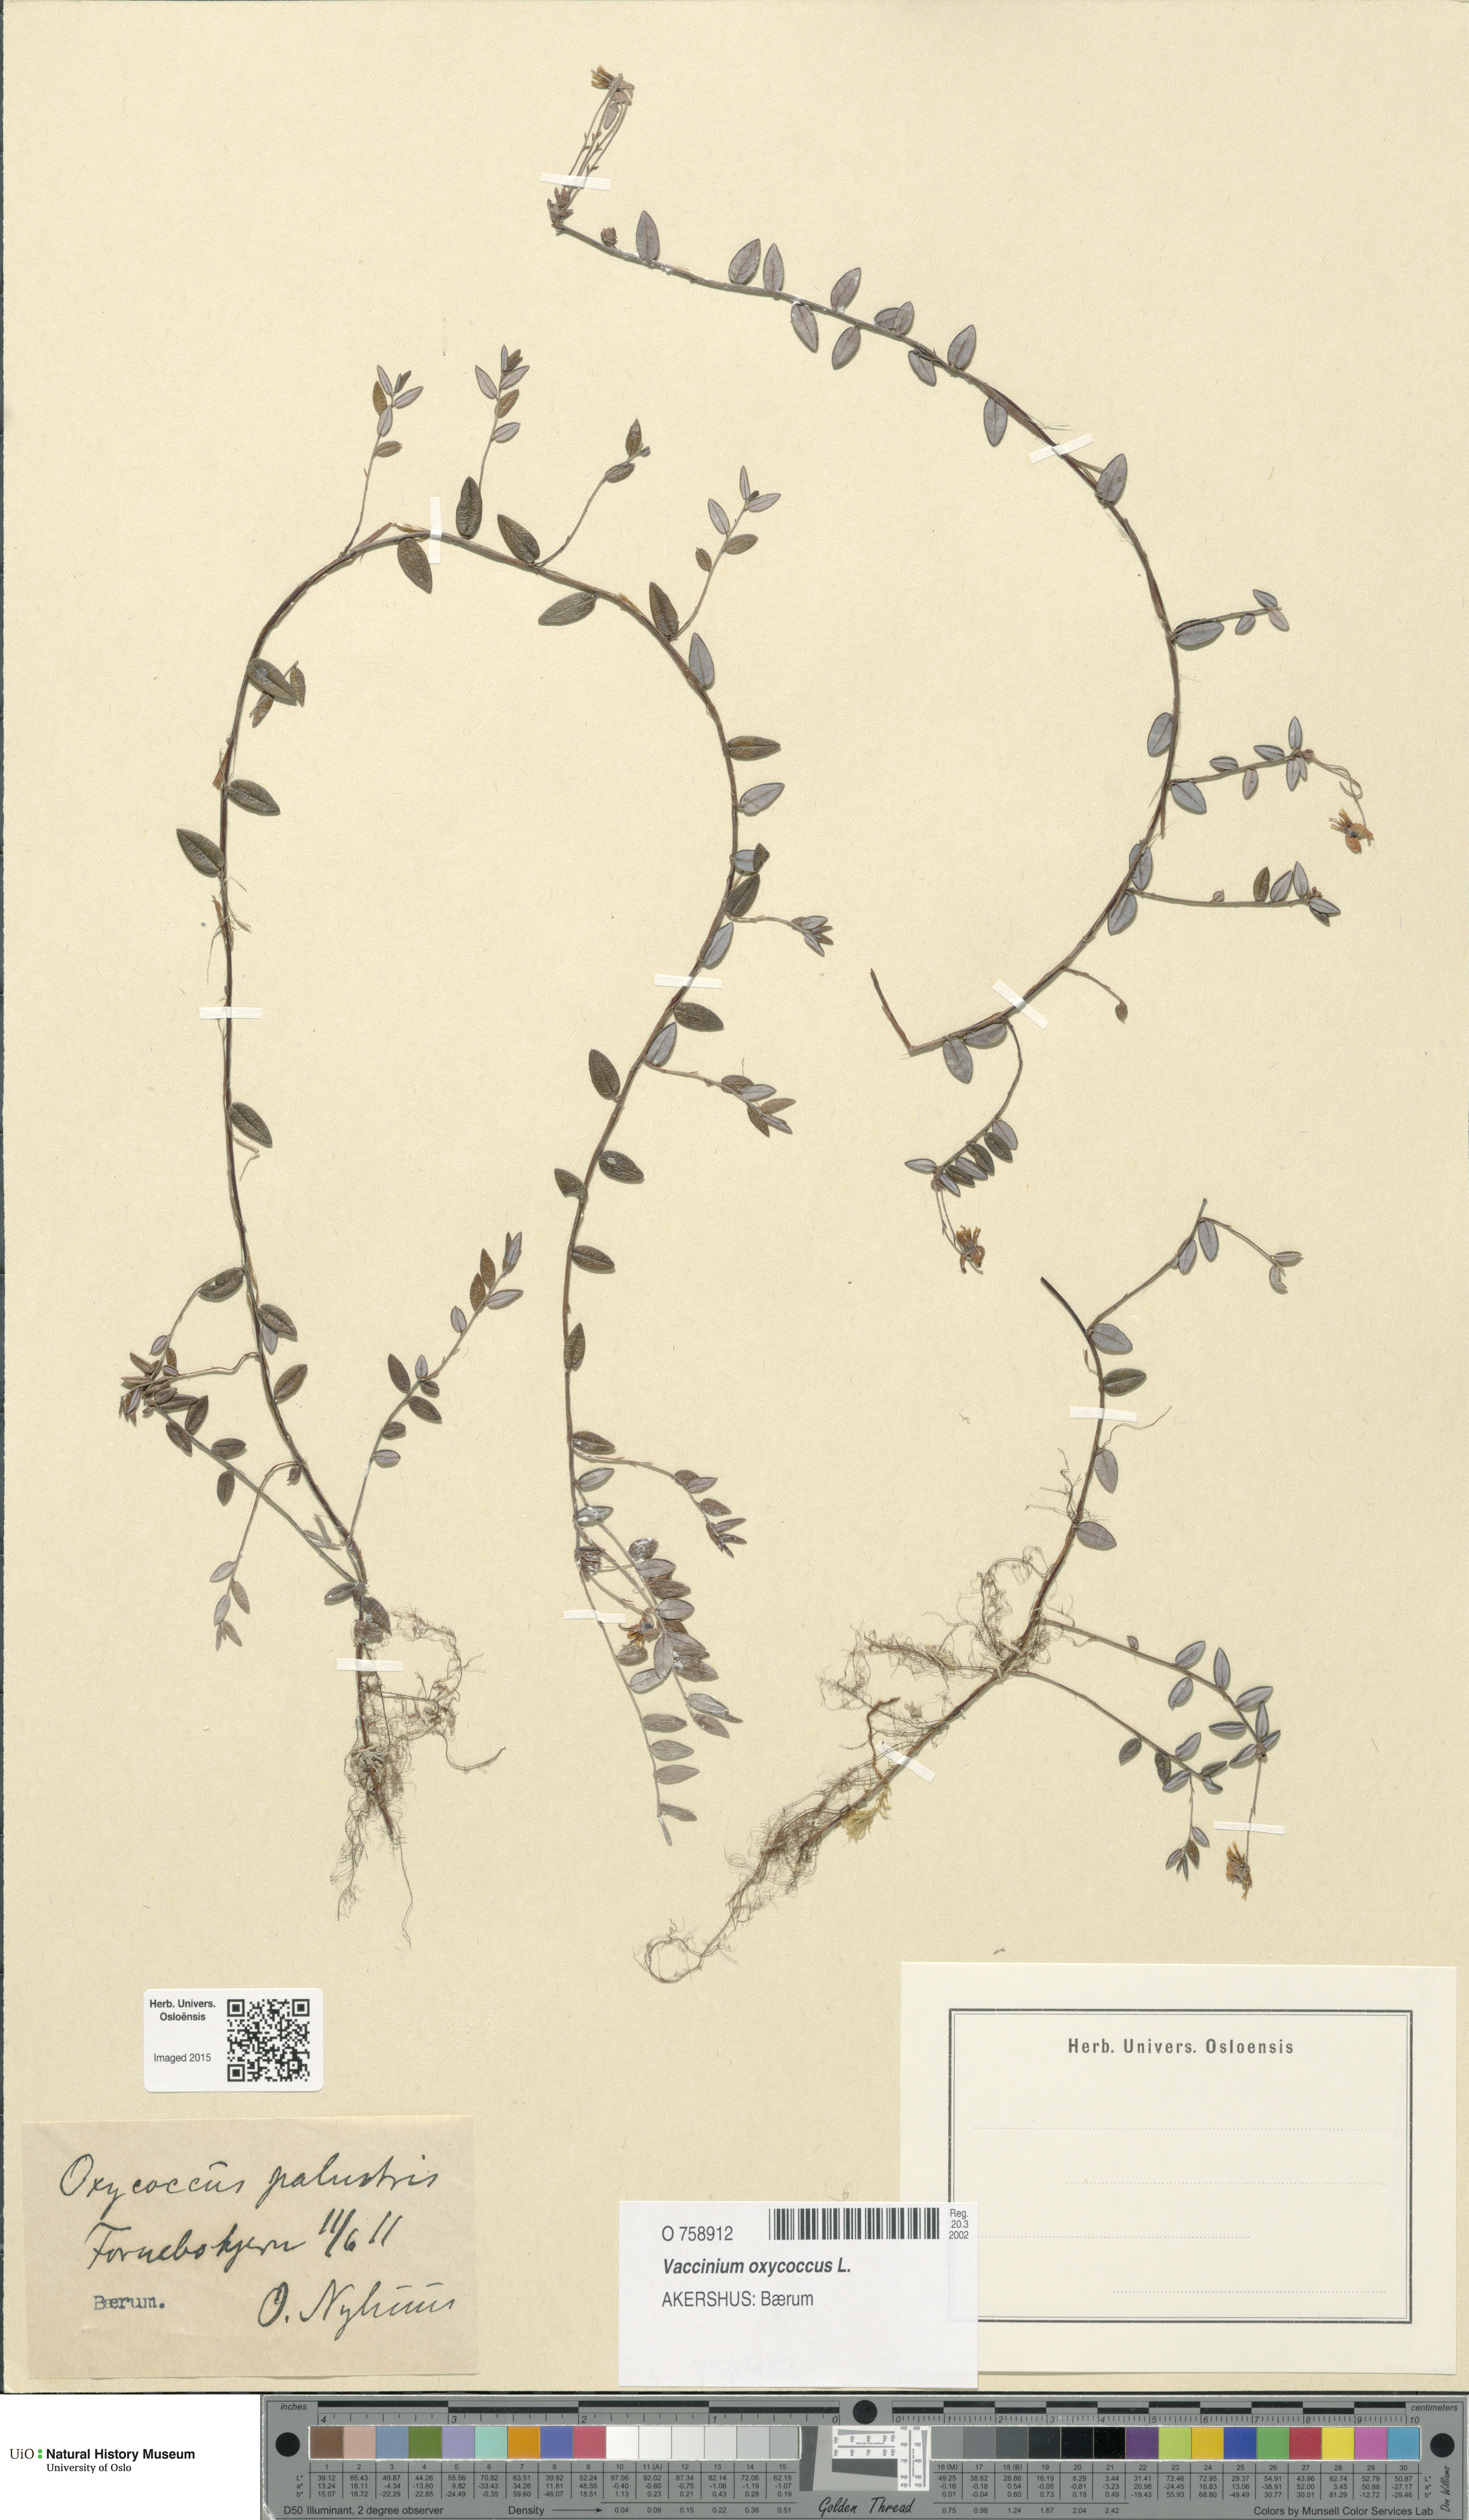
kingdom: Plantae
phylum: Tracheophyta
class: Magnoliopsida
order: Ericales
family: Ericaceae
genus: Vaccinium
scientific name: Vaccinium oxycoccos
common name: Cranberry
